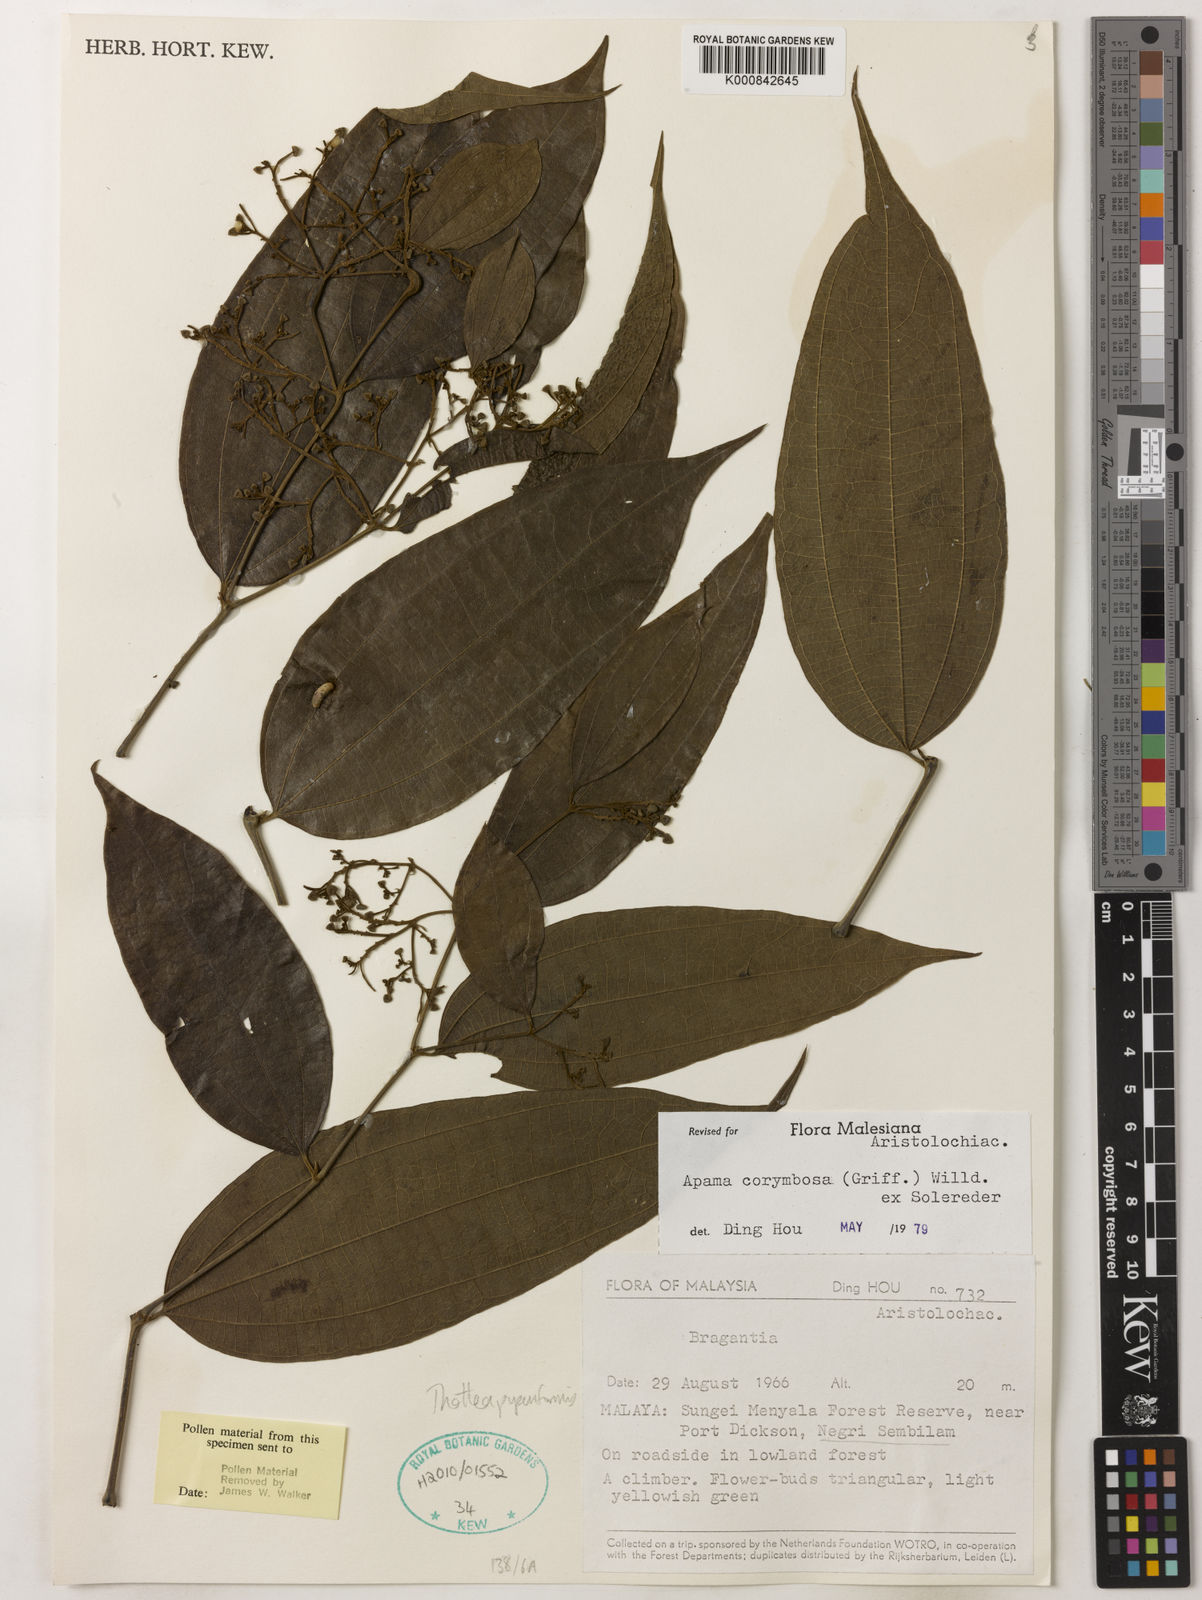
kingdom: Plantae
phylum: Tracheophyta
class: Magnoliopsida
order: Piperales
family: Aristolochiaceae
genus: Thottea
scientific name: Thottea piperiformis
